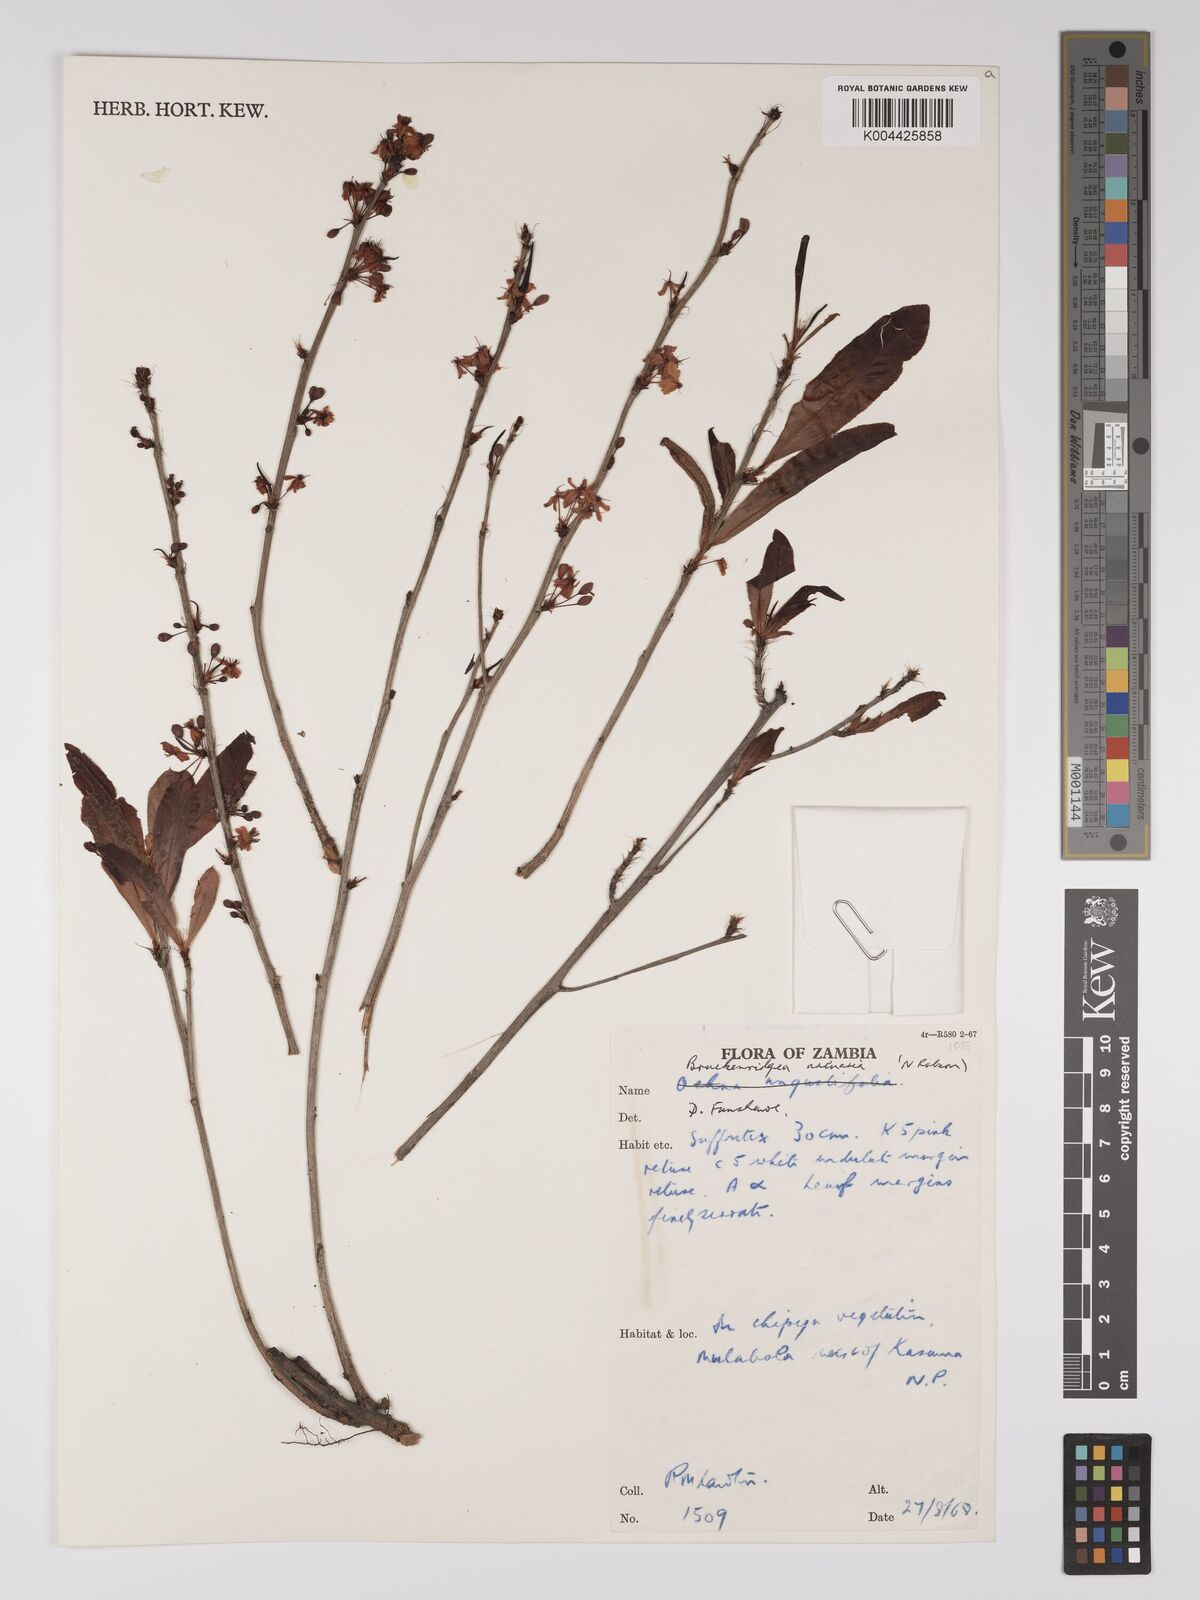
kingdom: Plantae
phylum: Tracheophyta
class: Magnoliopsida
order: Malpighiales
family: Ochnaceae
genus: Ochna
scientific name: Ochna arenaria
